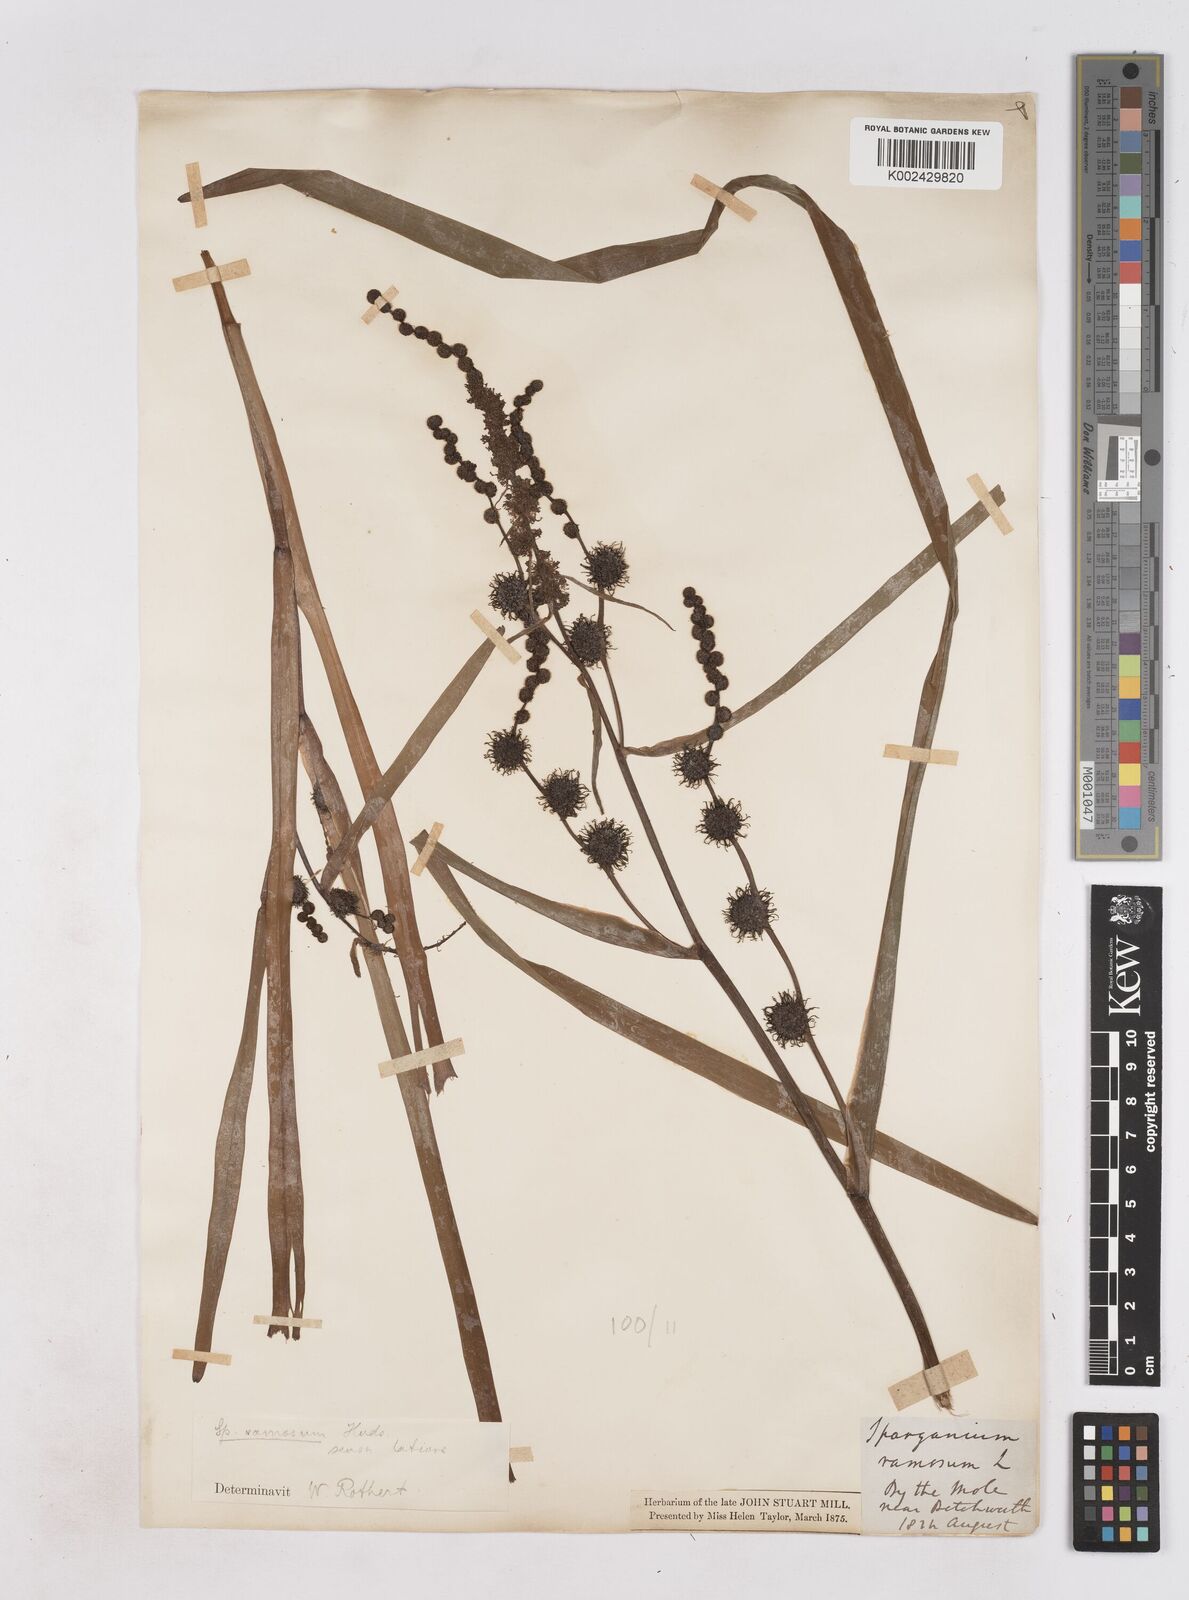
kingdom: Plantae
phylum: Tracheophyta
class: Liliopsida
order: Poales
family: Typhaceae
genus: Sparganium
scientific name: Sparganium erectum
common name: Branched bur-reed
